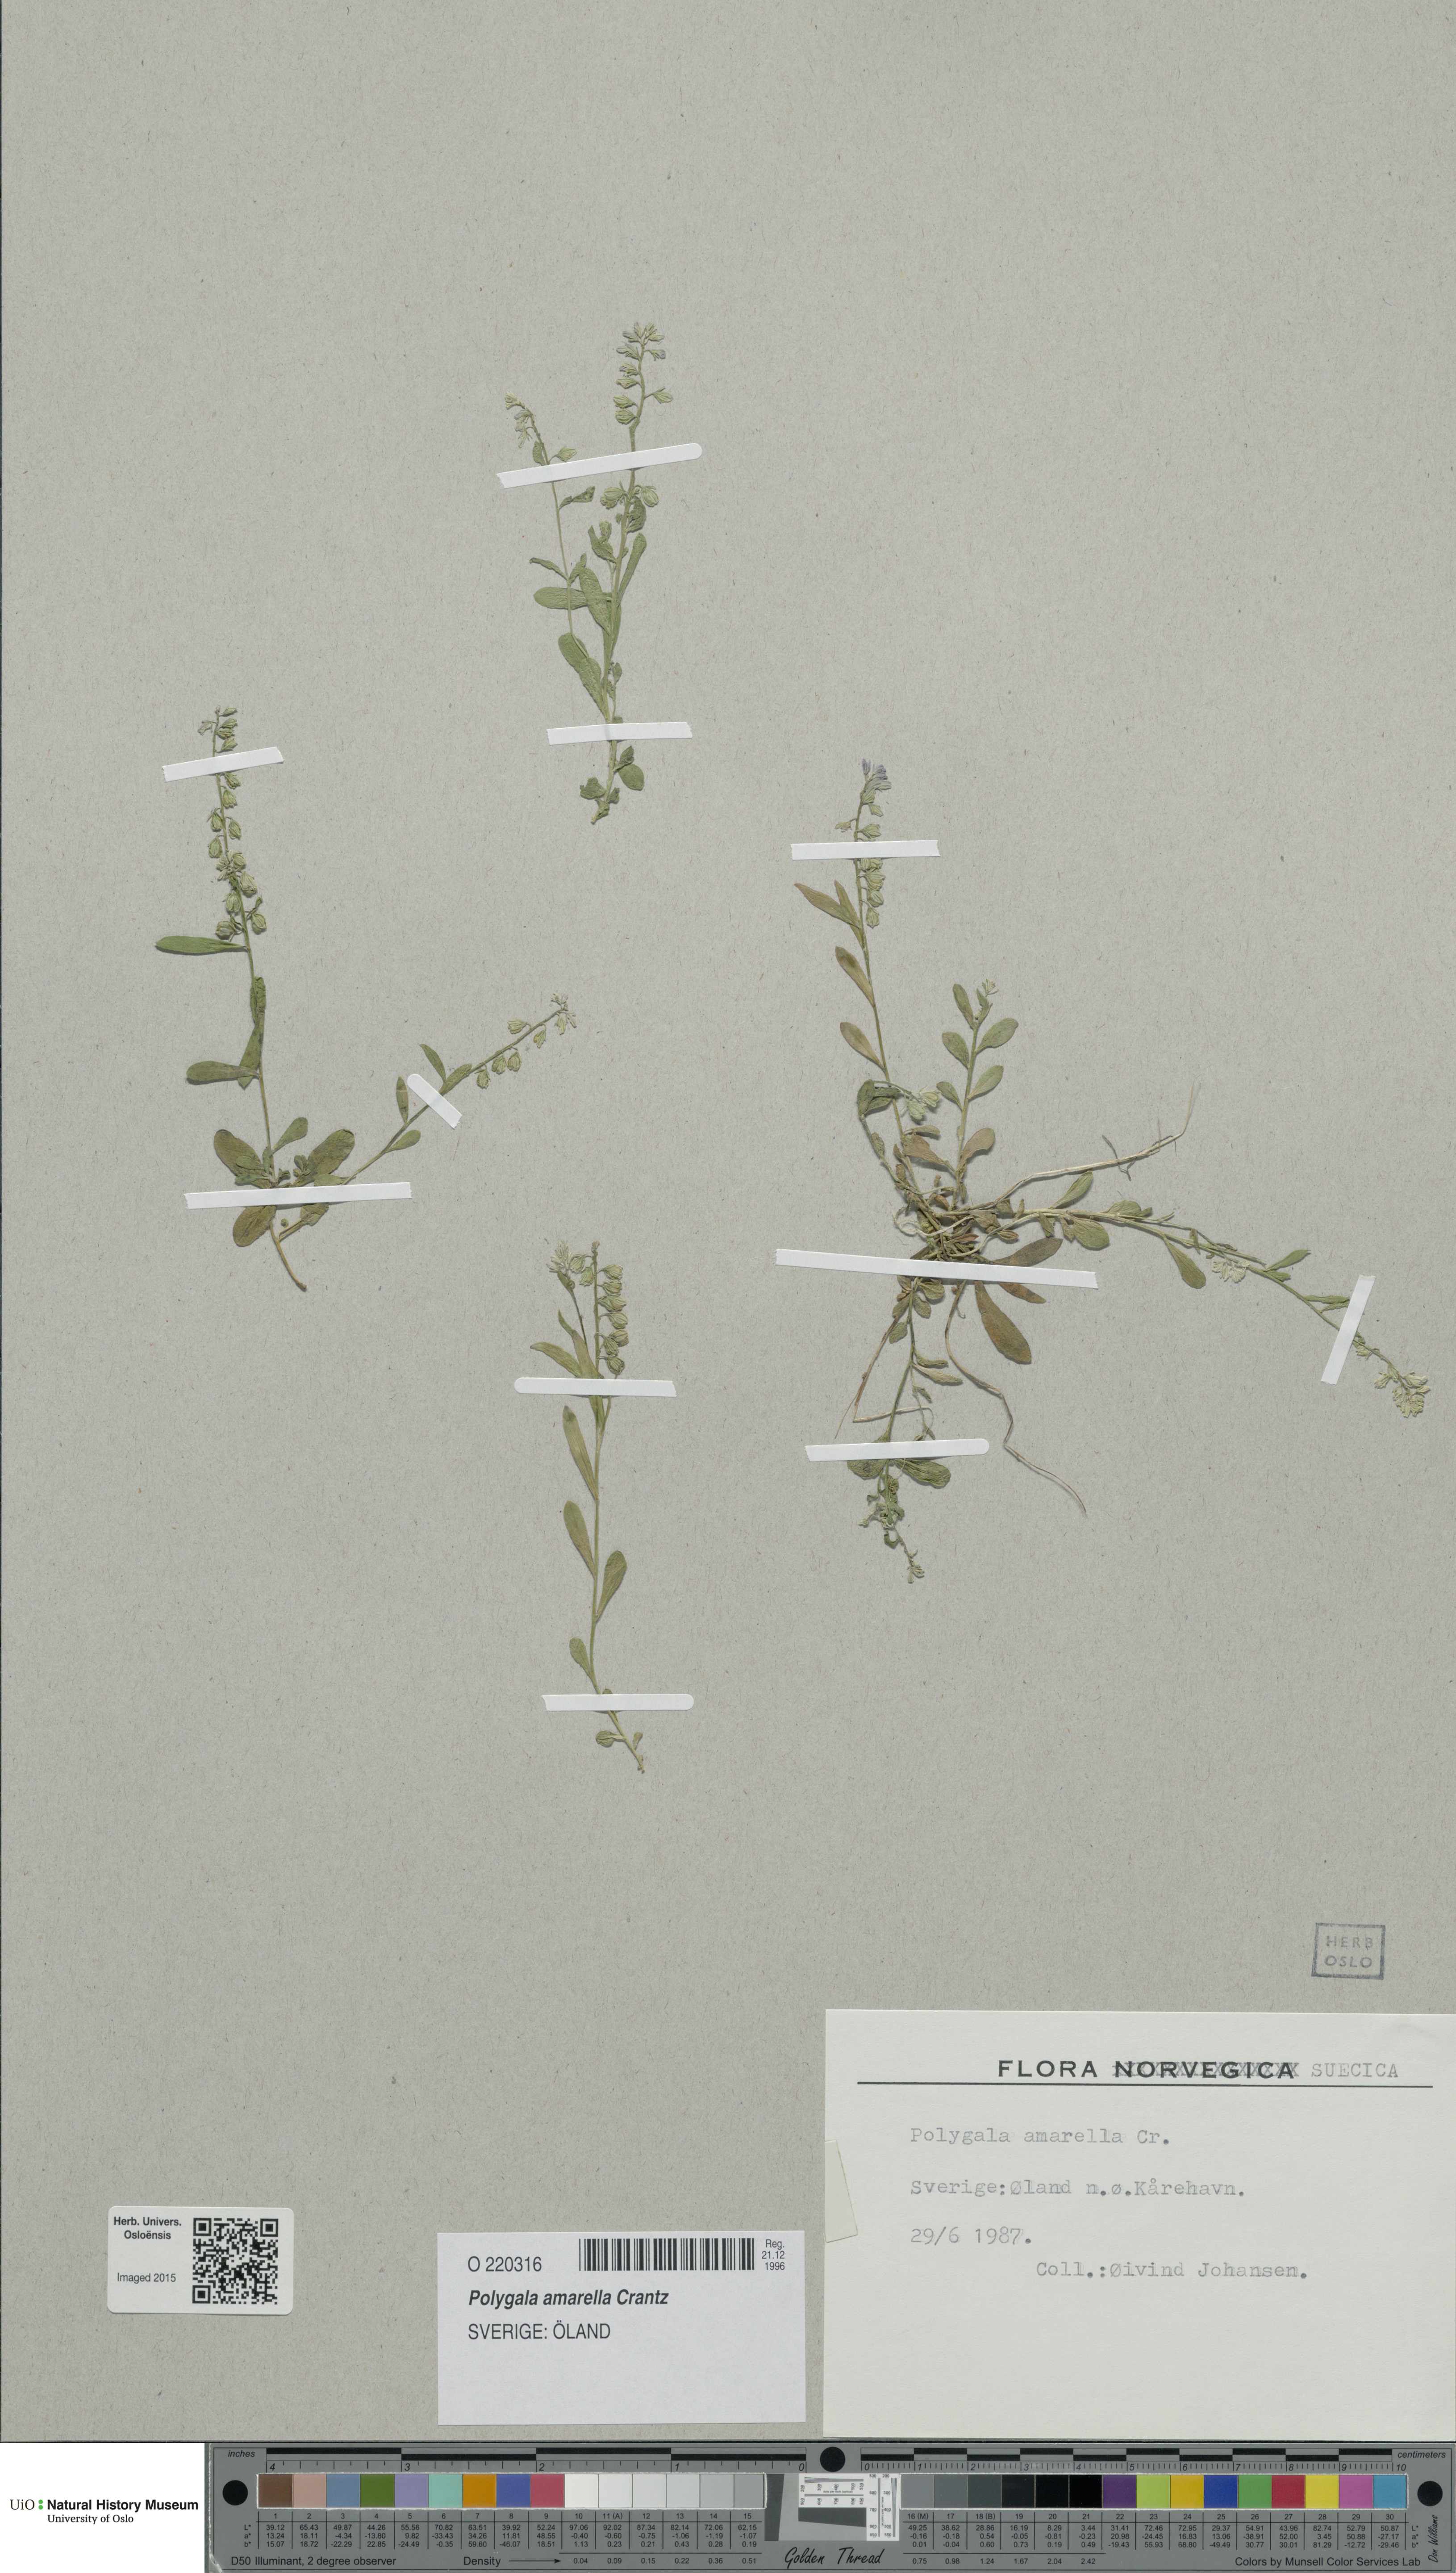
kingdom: Plantae
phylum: Tracheophyta
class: Magnoliopsida
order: Fabales
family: Polygalaceae
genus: Polygala
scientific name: Polygala amarella
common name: Dwarf milkwort
